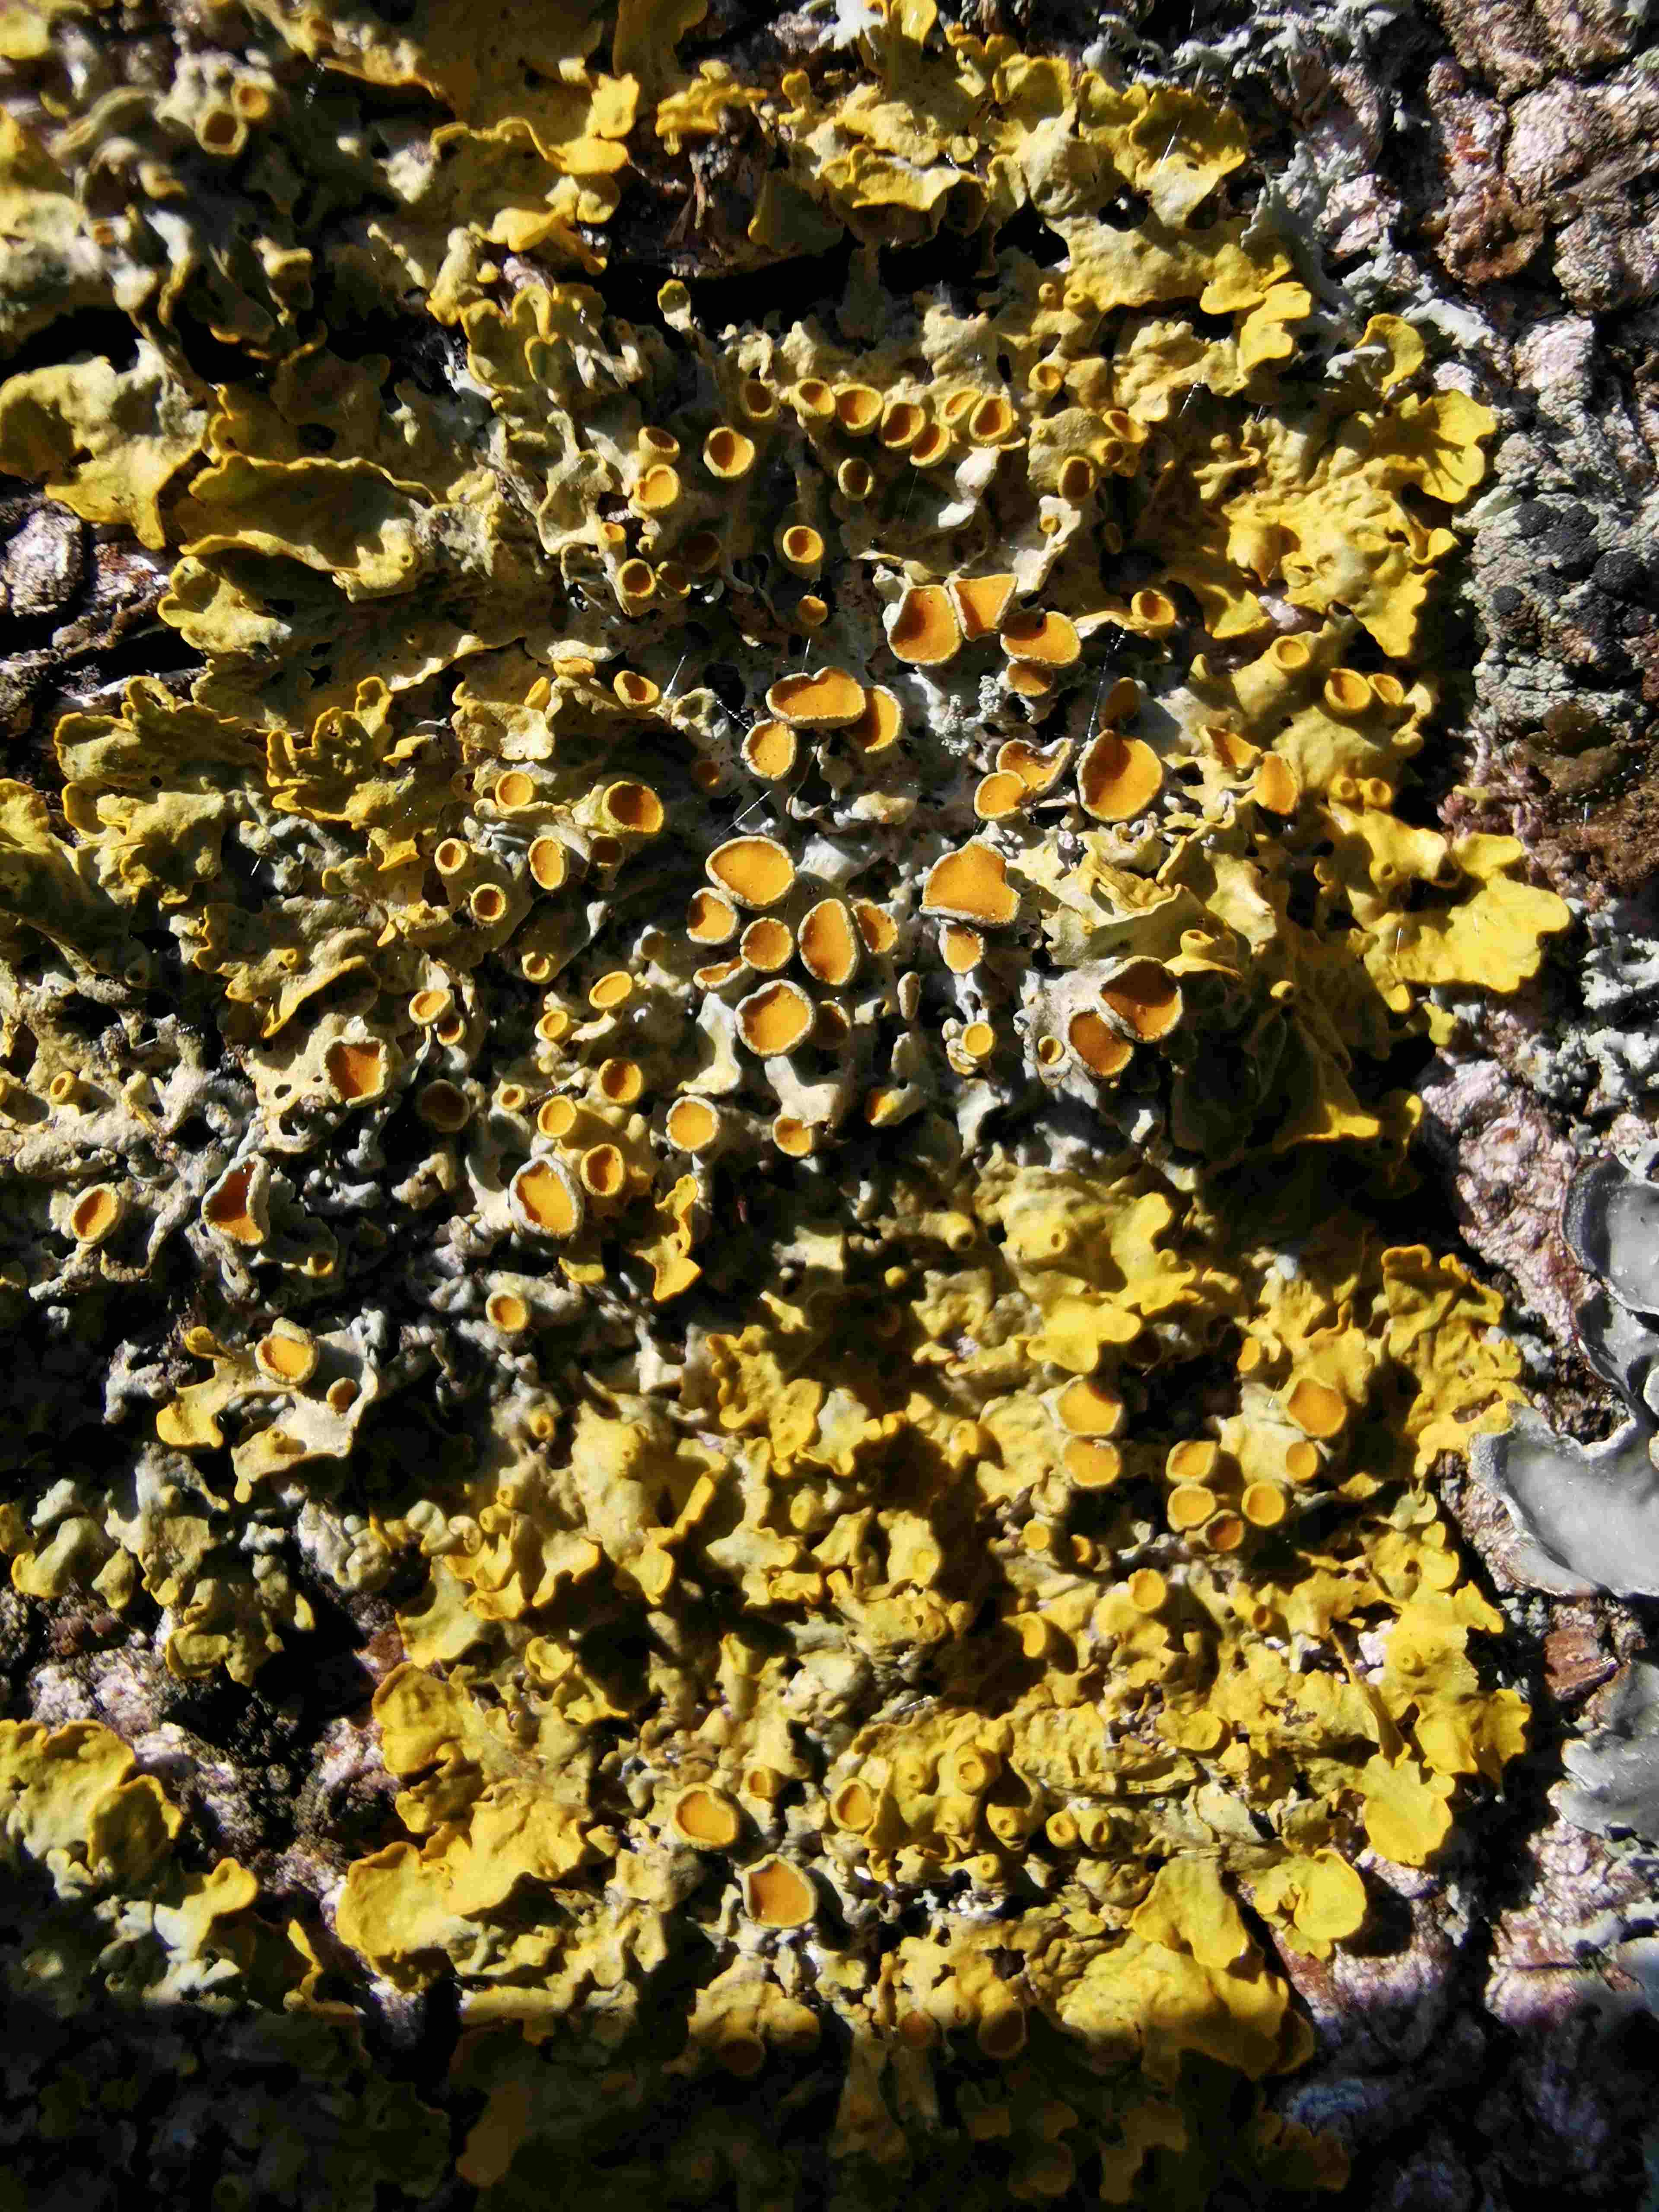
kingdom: Fungi
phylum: Ascomycota
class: Lecanoromycetes
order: Teloschistales
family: Teloschistaceae
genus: Xanthoria
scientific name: Xanthoria parietina
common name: almindelig væggelav
